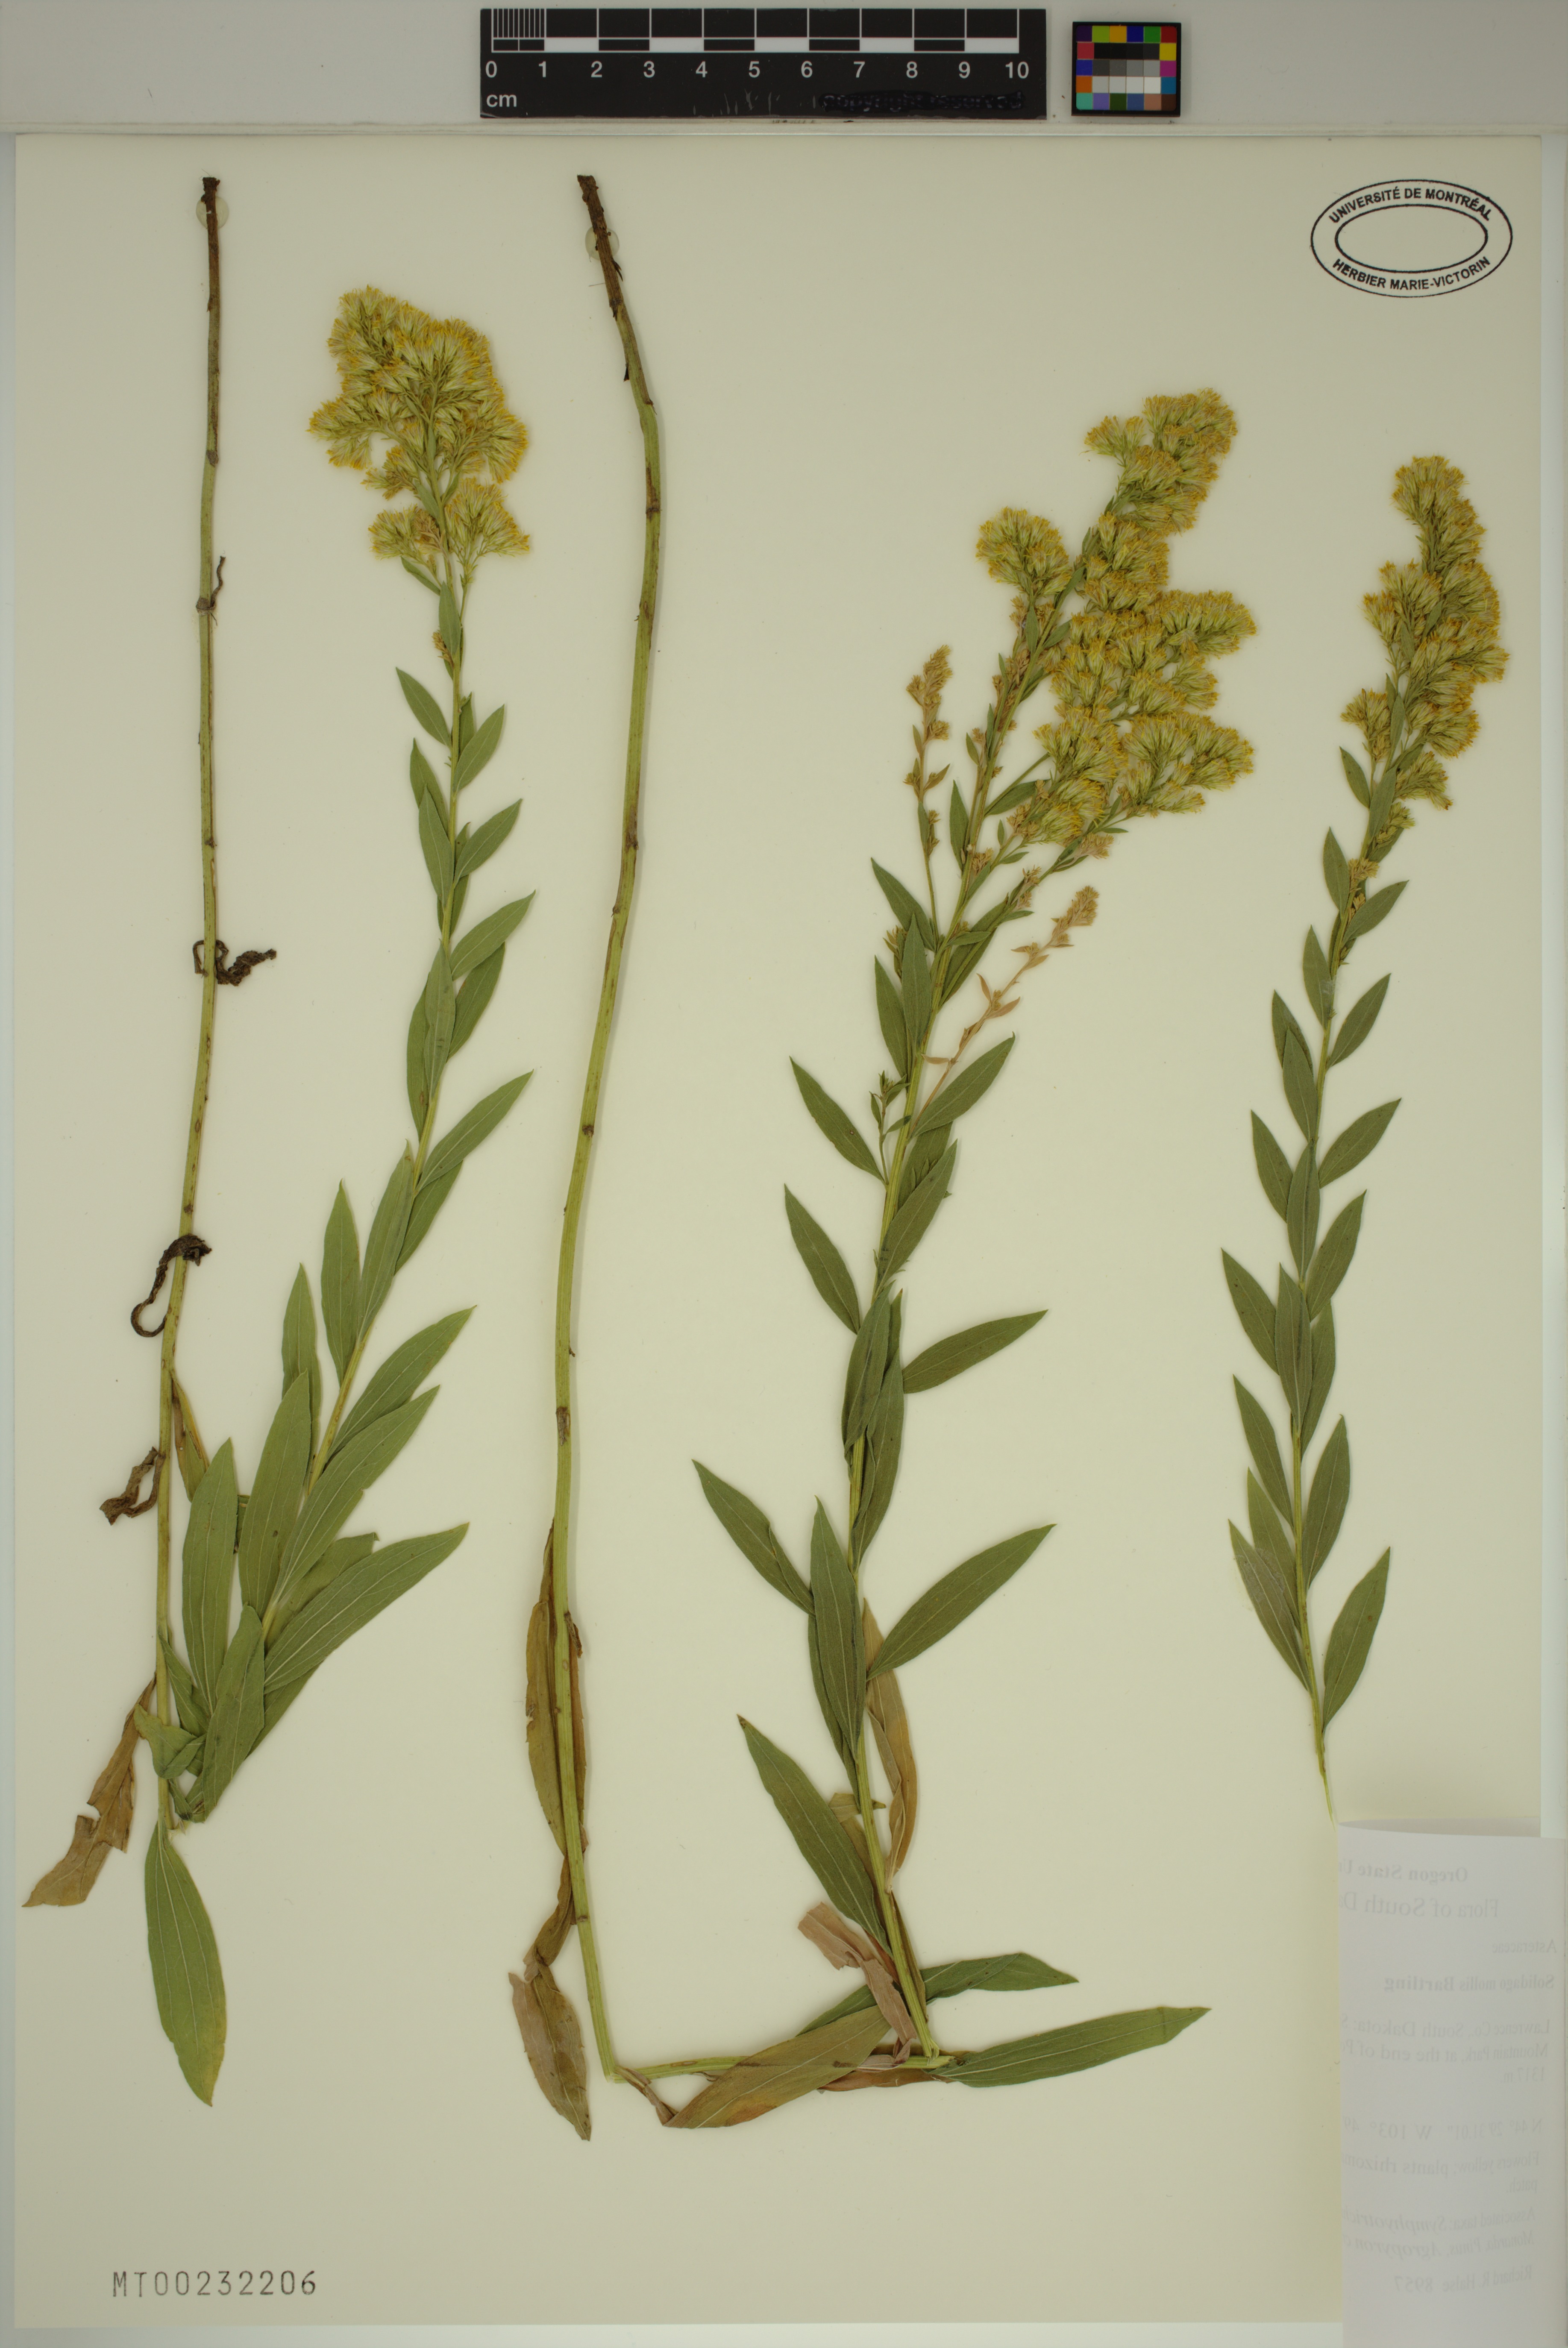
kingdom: Plantae
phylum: Tracheophyta
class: Magnoliopsida
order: Asterales
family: Asteraceae
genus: Solidago
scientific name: Solidago mollis
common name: Ashly goldenrod
